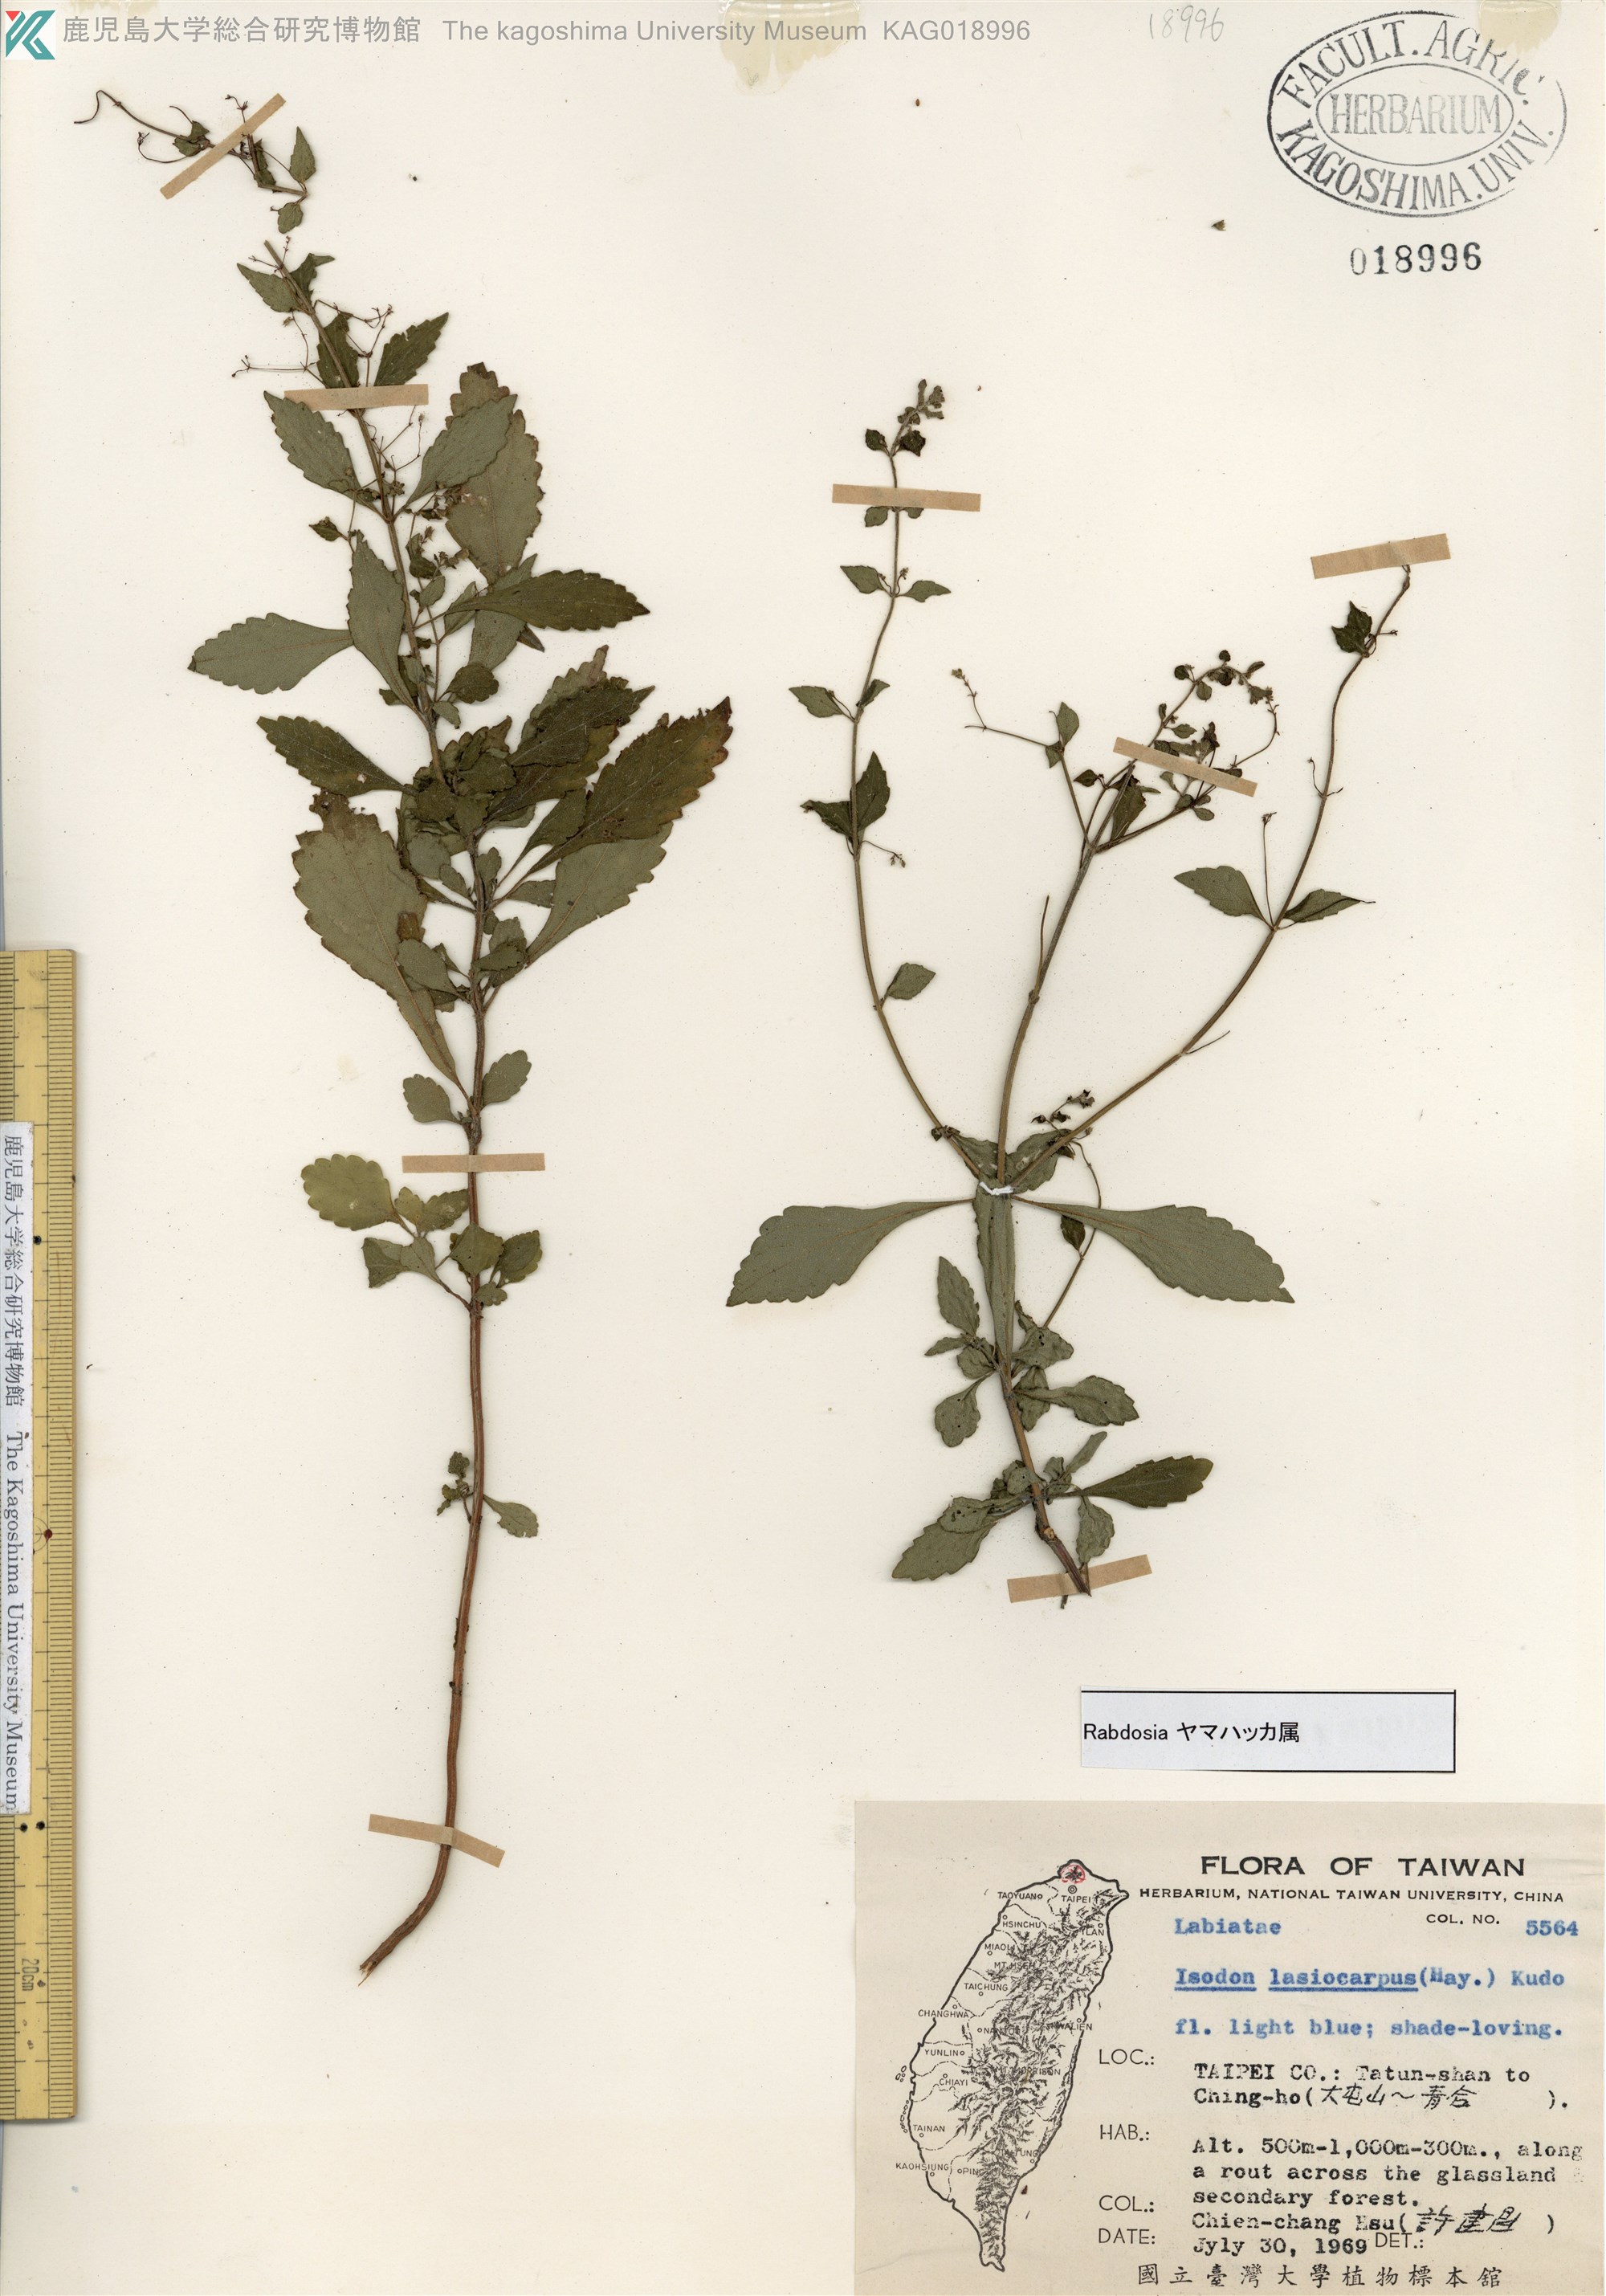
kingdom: Plantae
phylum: Tracheophyta
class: Magnoliopsida
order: Lamiales
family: Lamiaceae
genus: Isodon
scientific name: Isodon serra
